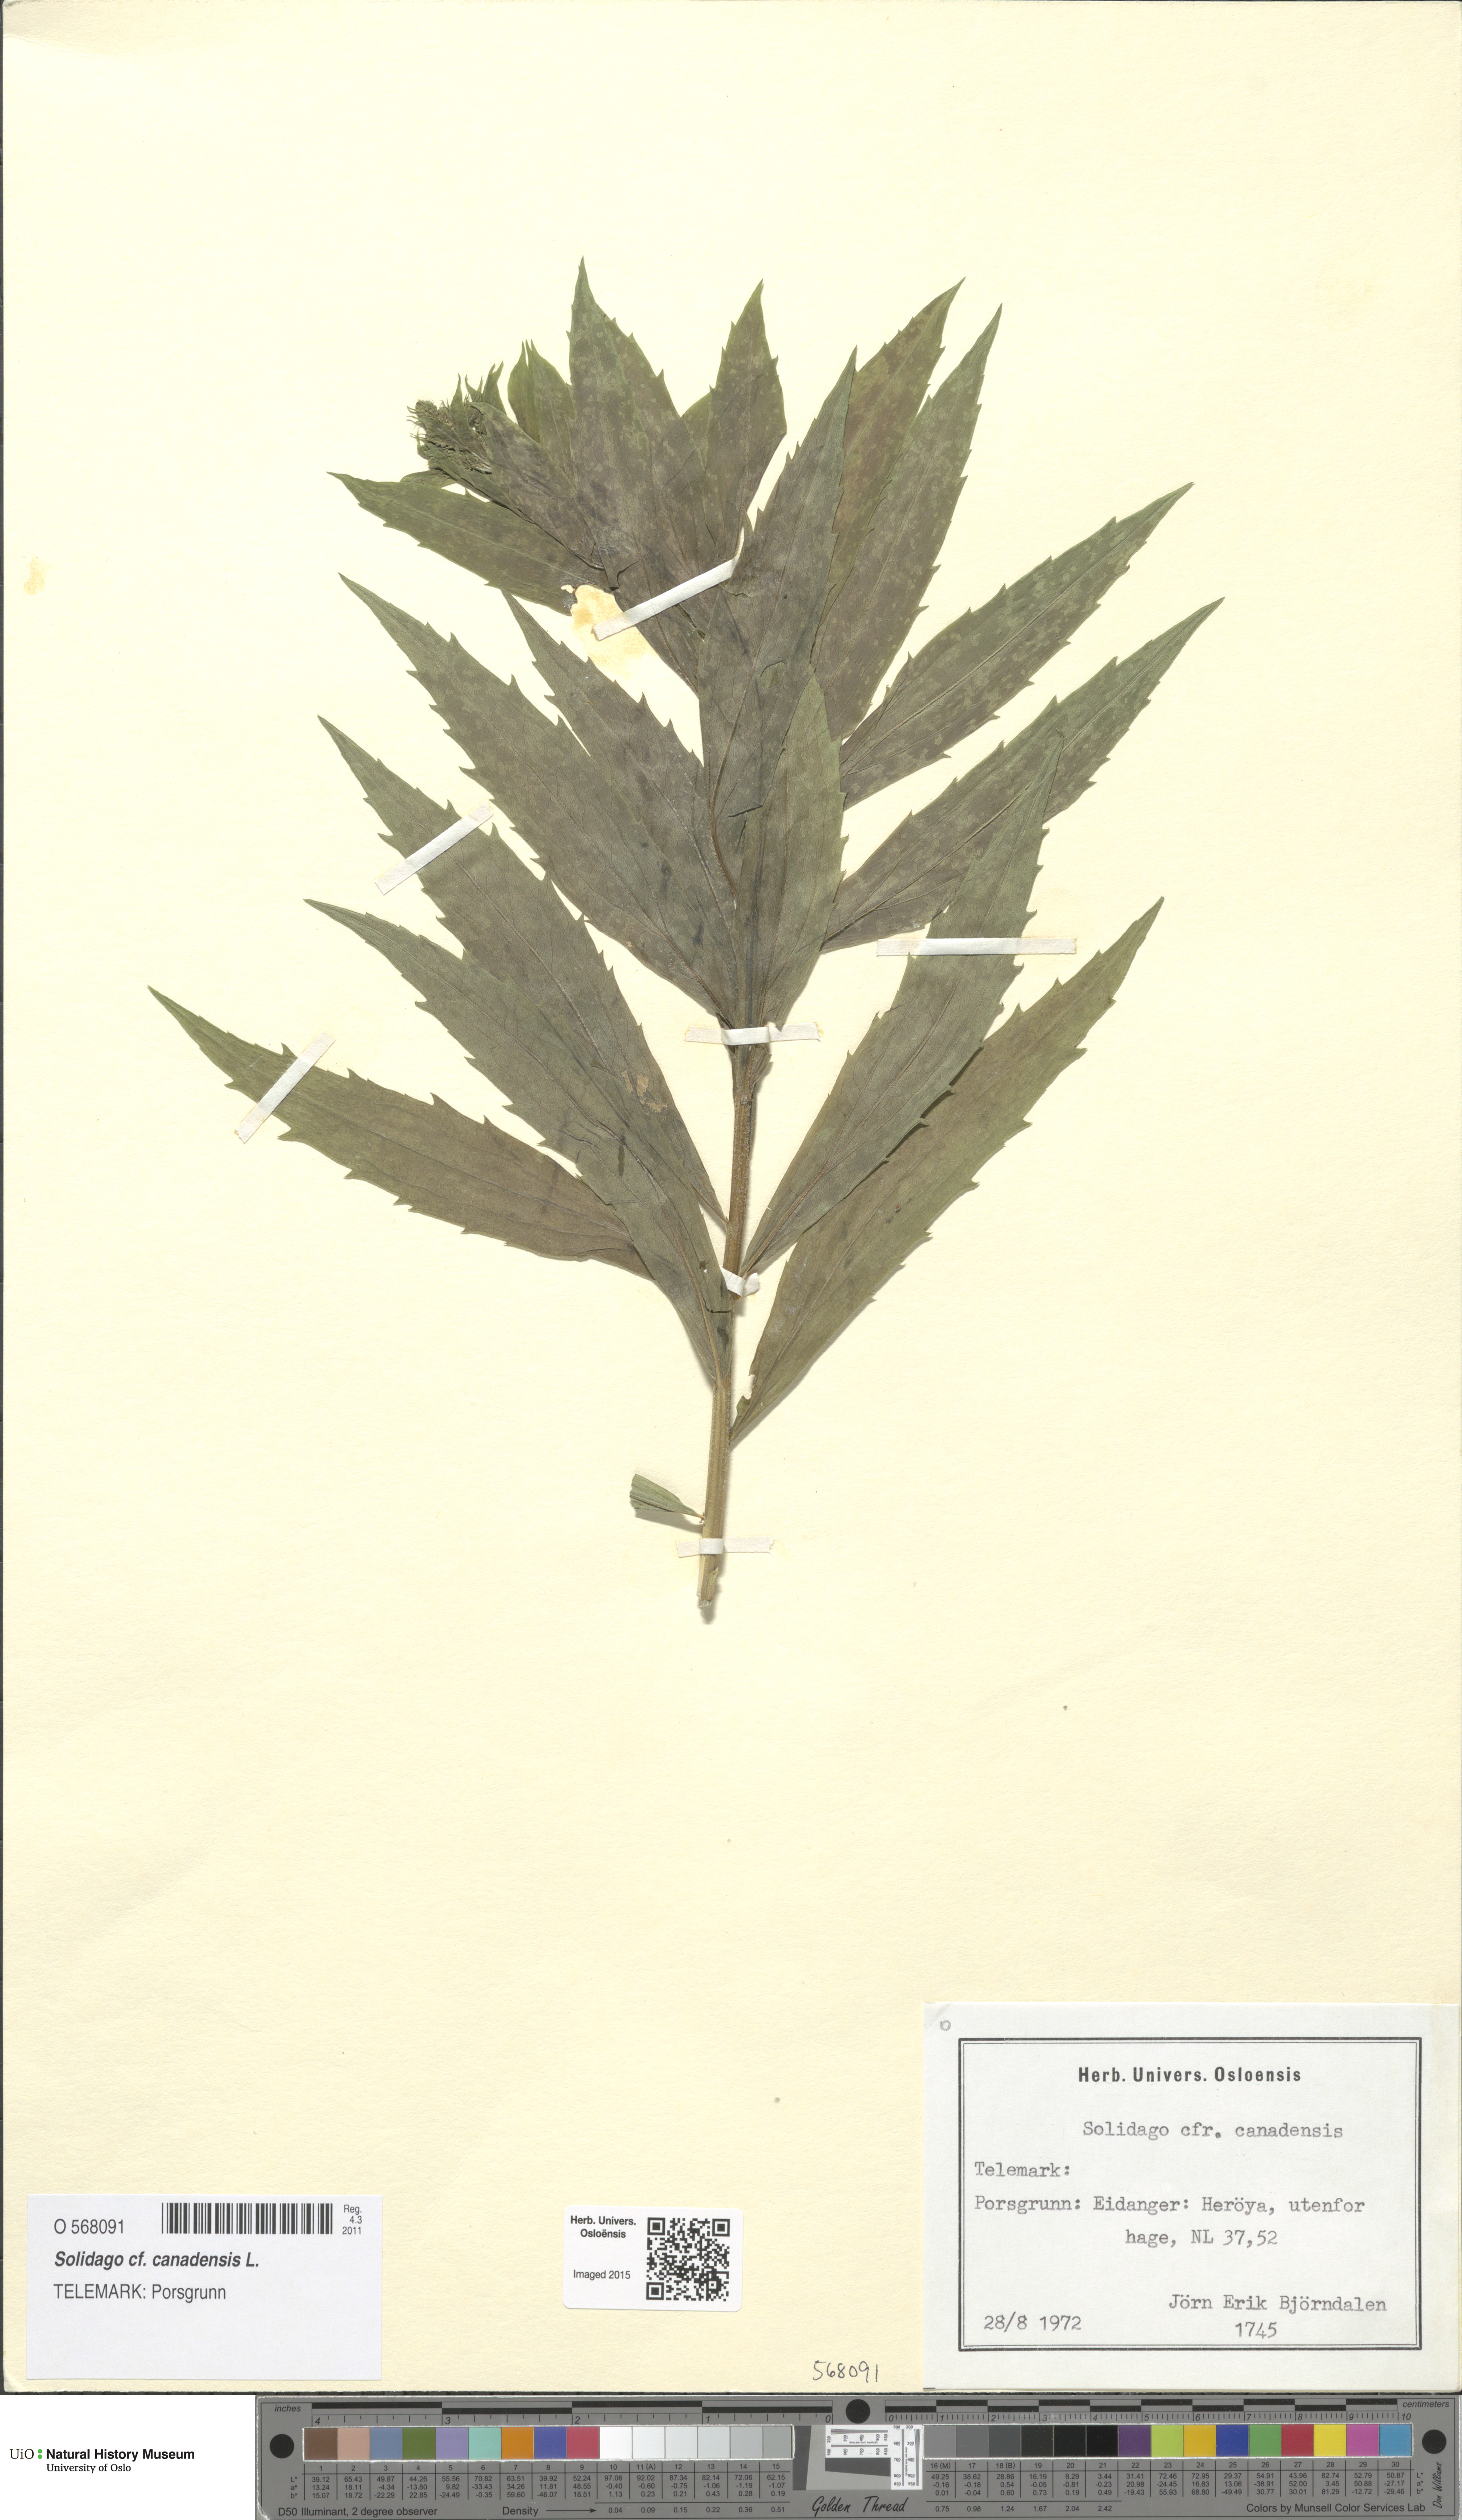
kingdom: Plantae
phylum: Tracheophyta
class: Magnoliopsida
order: Asterales
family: Asteraceae
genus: Solidago
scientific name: Solidago canadensis
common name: Canada goldenrod
